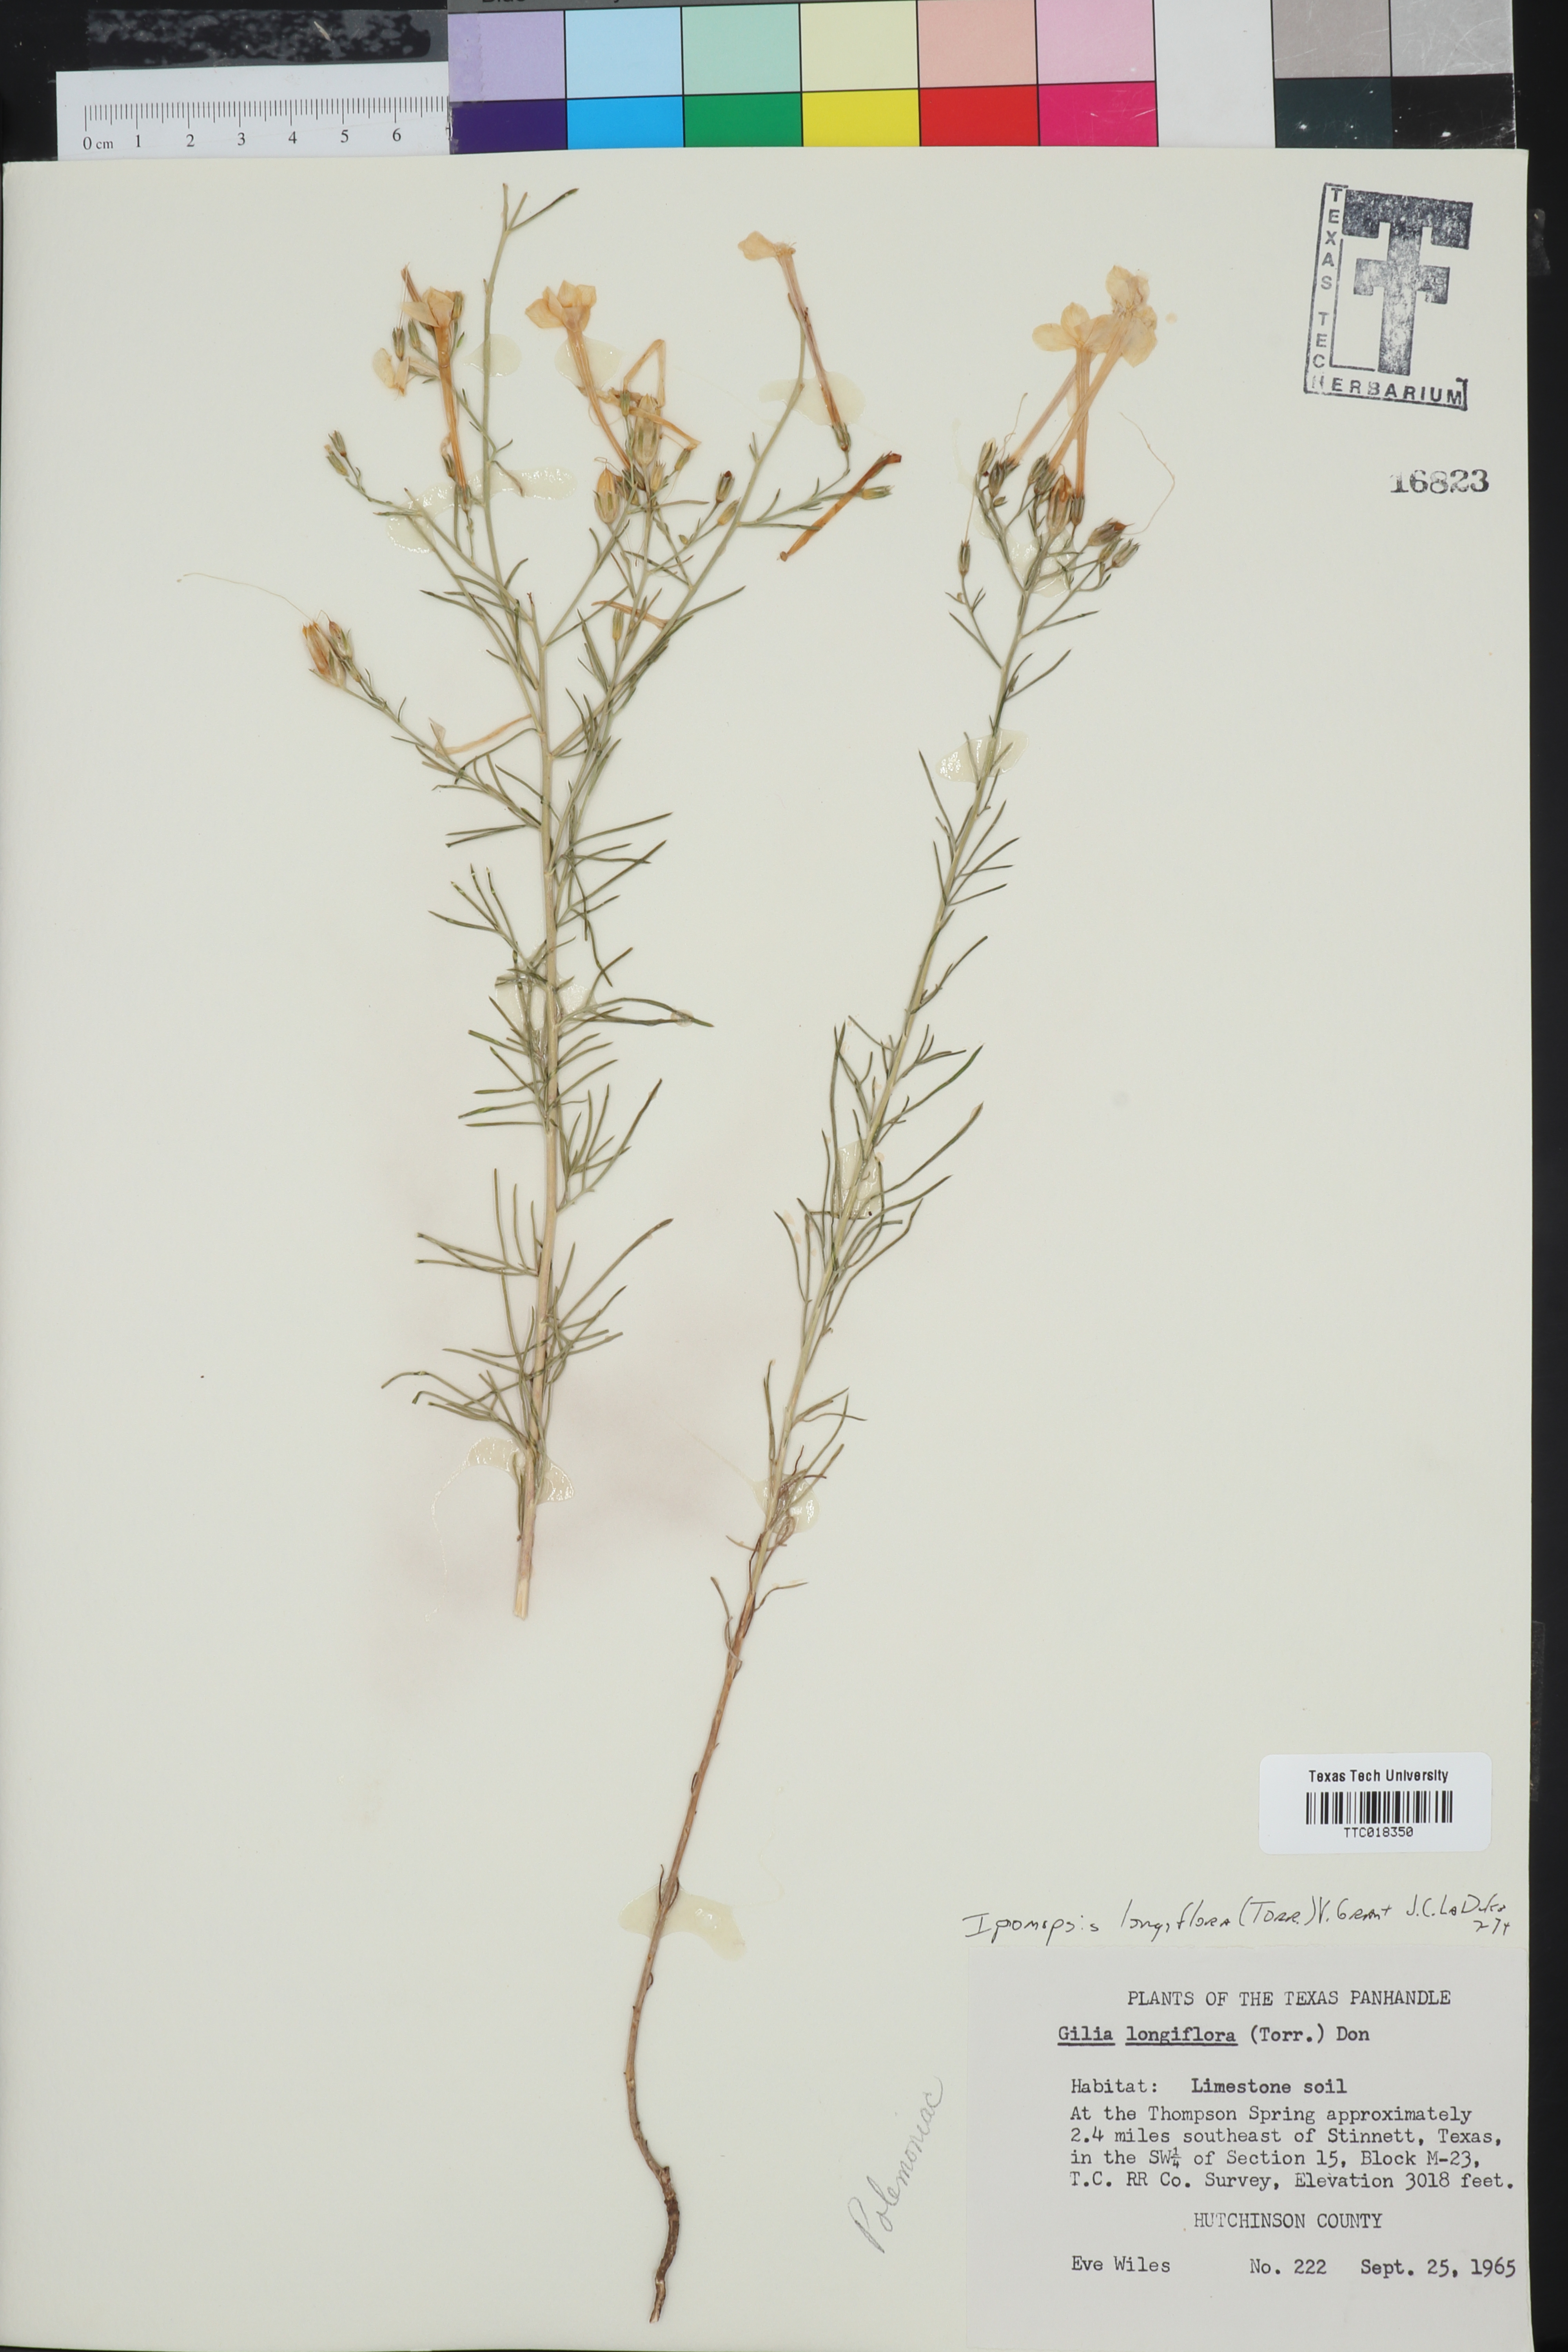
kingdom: Plantae
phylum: Tracheophyta
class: Magnoliopsida
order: Ericales
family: Polemoniaceae
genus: Ipomopsis
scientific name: Ipomopsis longiflora
